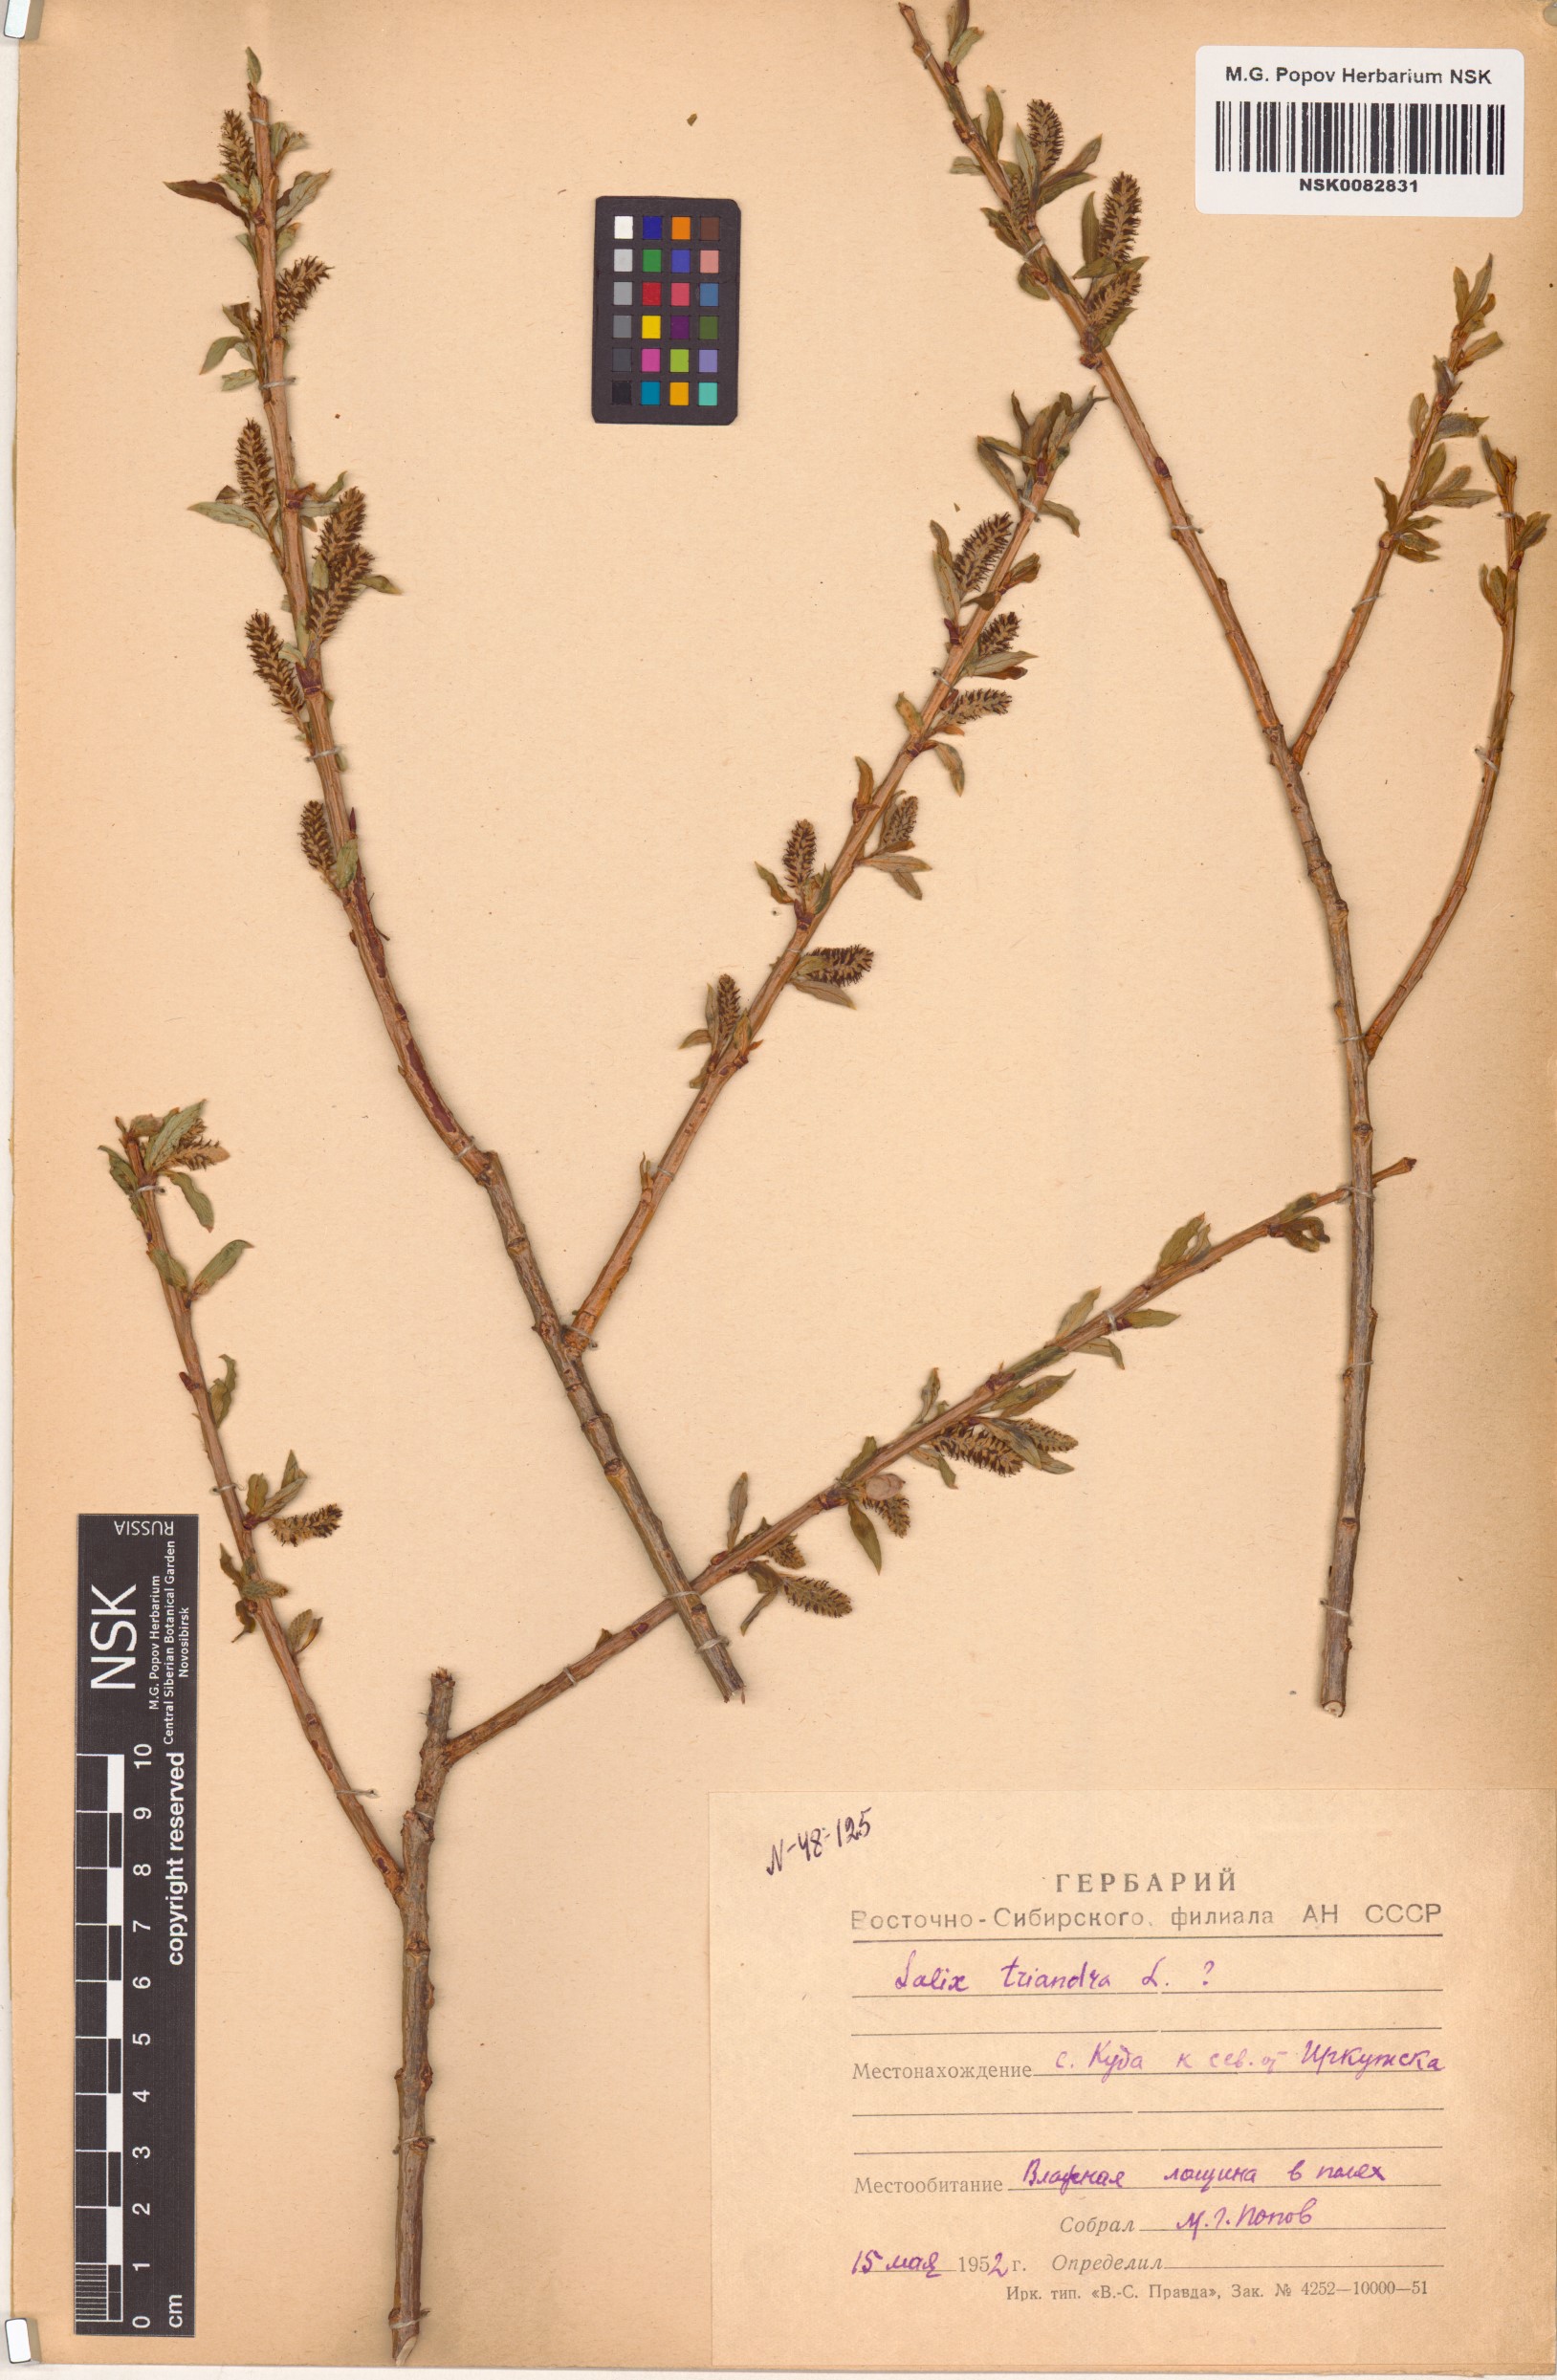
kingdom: Plantae
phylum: Tracheophyta
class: Magnoliopsida
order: Malpighiales
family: Salicaceae
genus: Salix
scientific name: Salix triandra
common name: Almond willow
